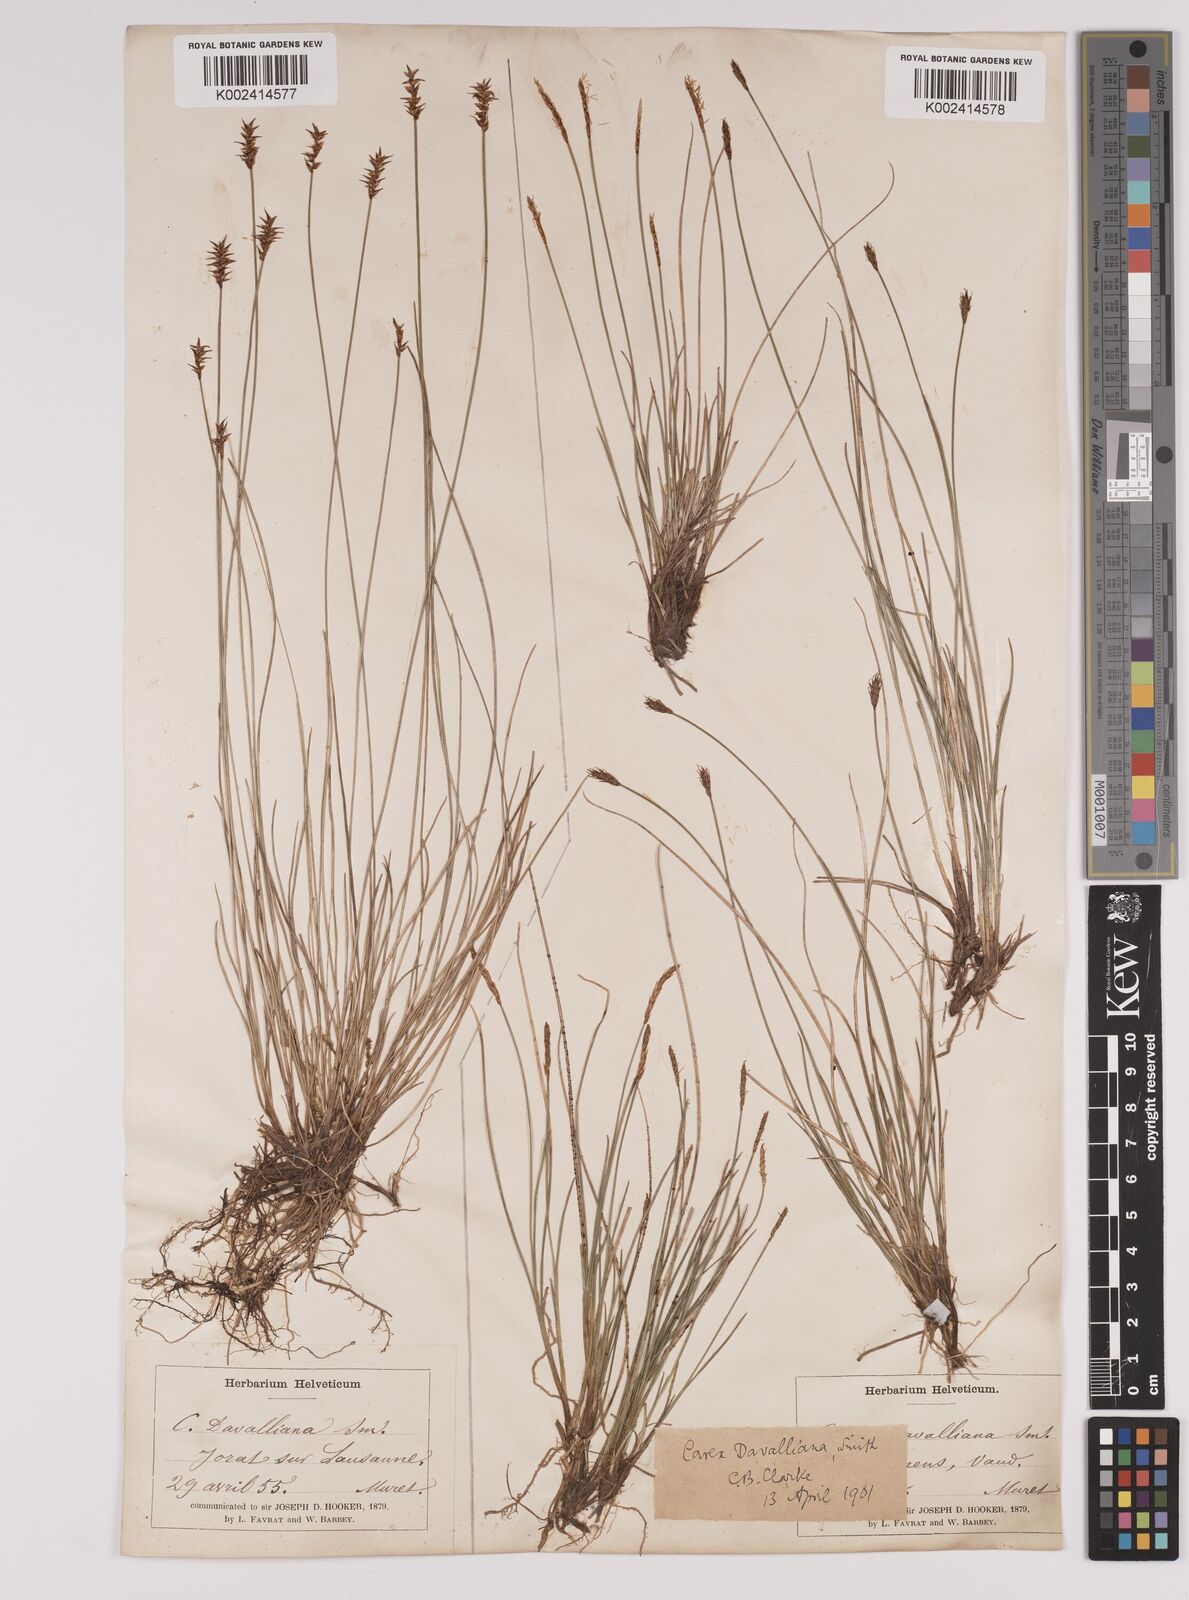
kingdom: Plantae
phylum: Tracheophyta
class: Liliopsida
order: Poales
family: Cyperaceae
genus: Carex
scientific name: Carex davalliana
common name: Davall's sedge
